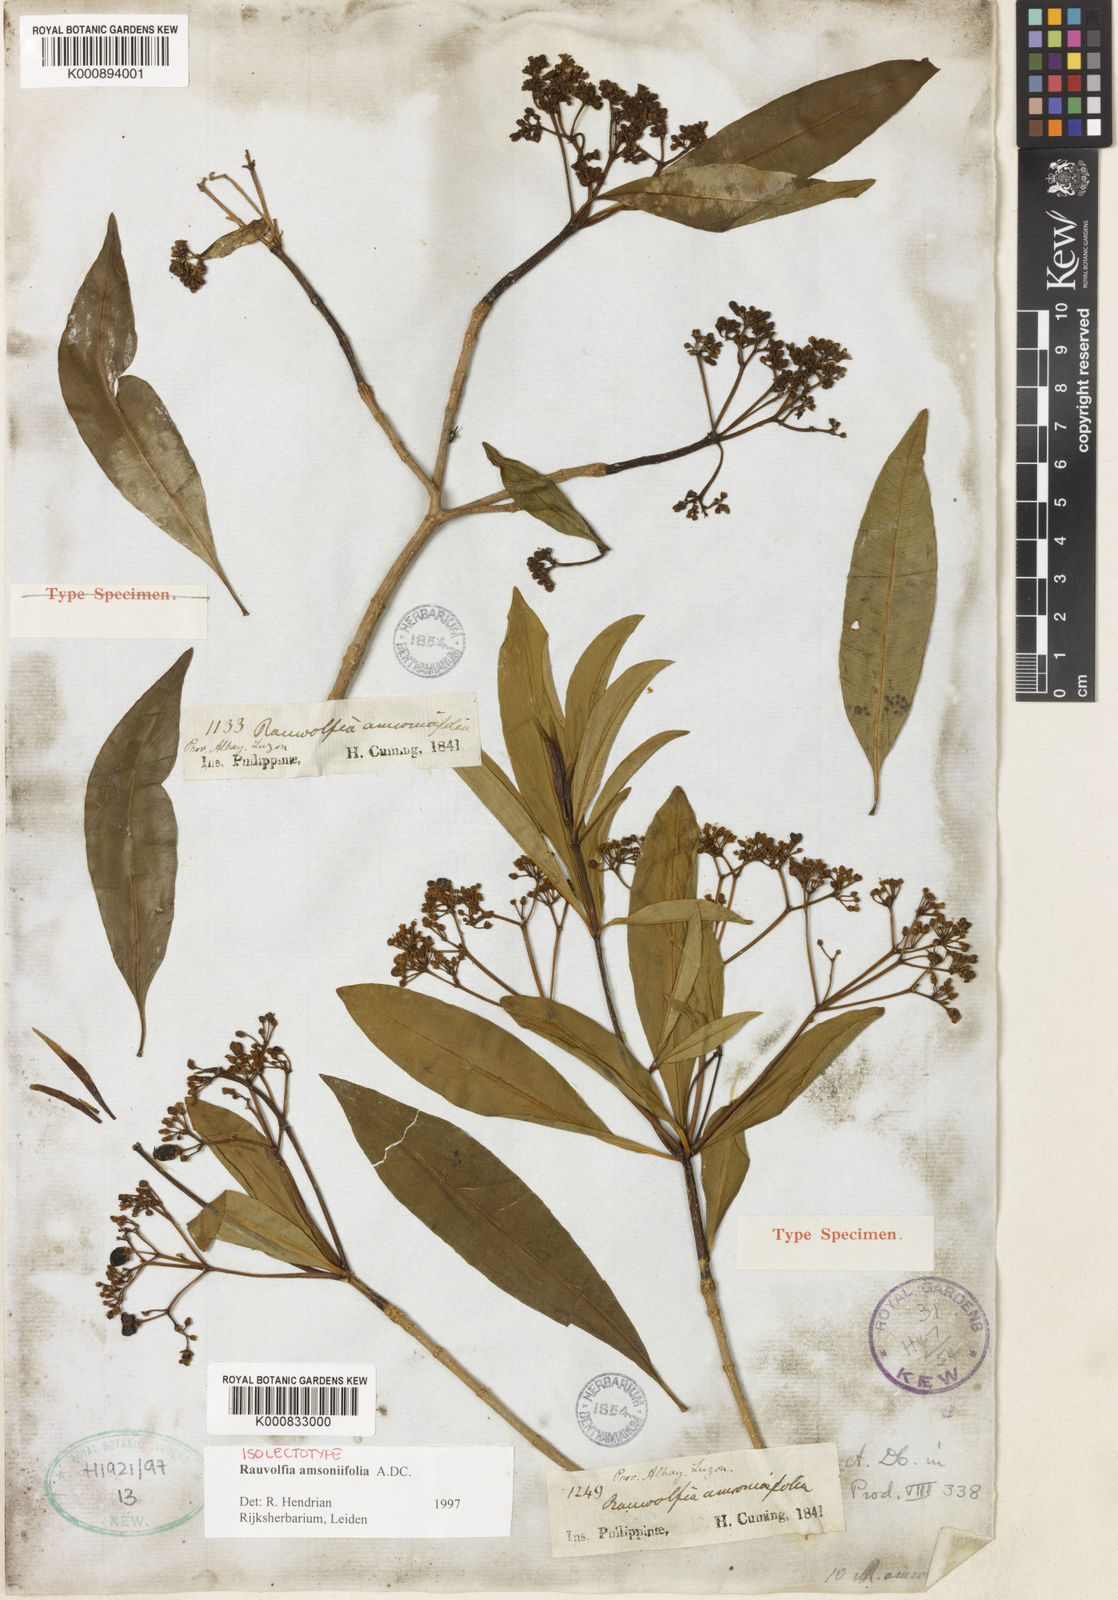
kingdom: Plantae
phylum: Tracheophyta
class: Magnoliopsida
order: Gentianales
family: Apocynaceae
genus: Rauvolfia
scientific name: Rauvolfia amsoniifolia
